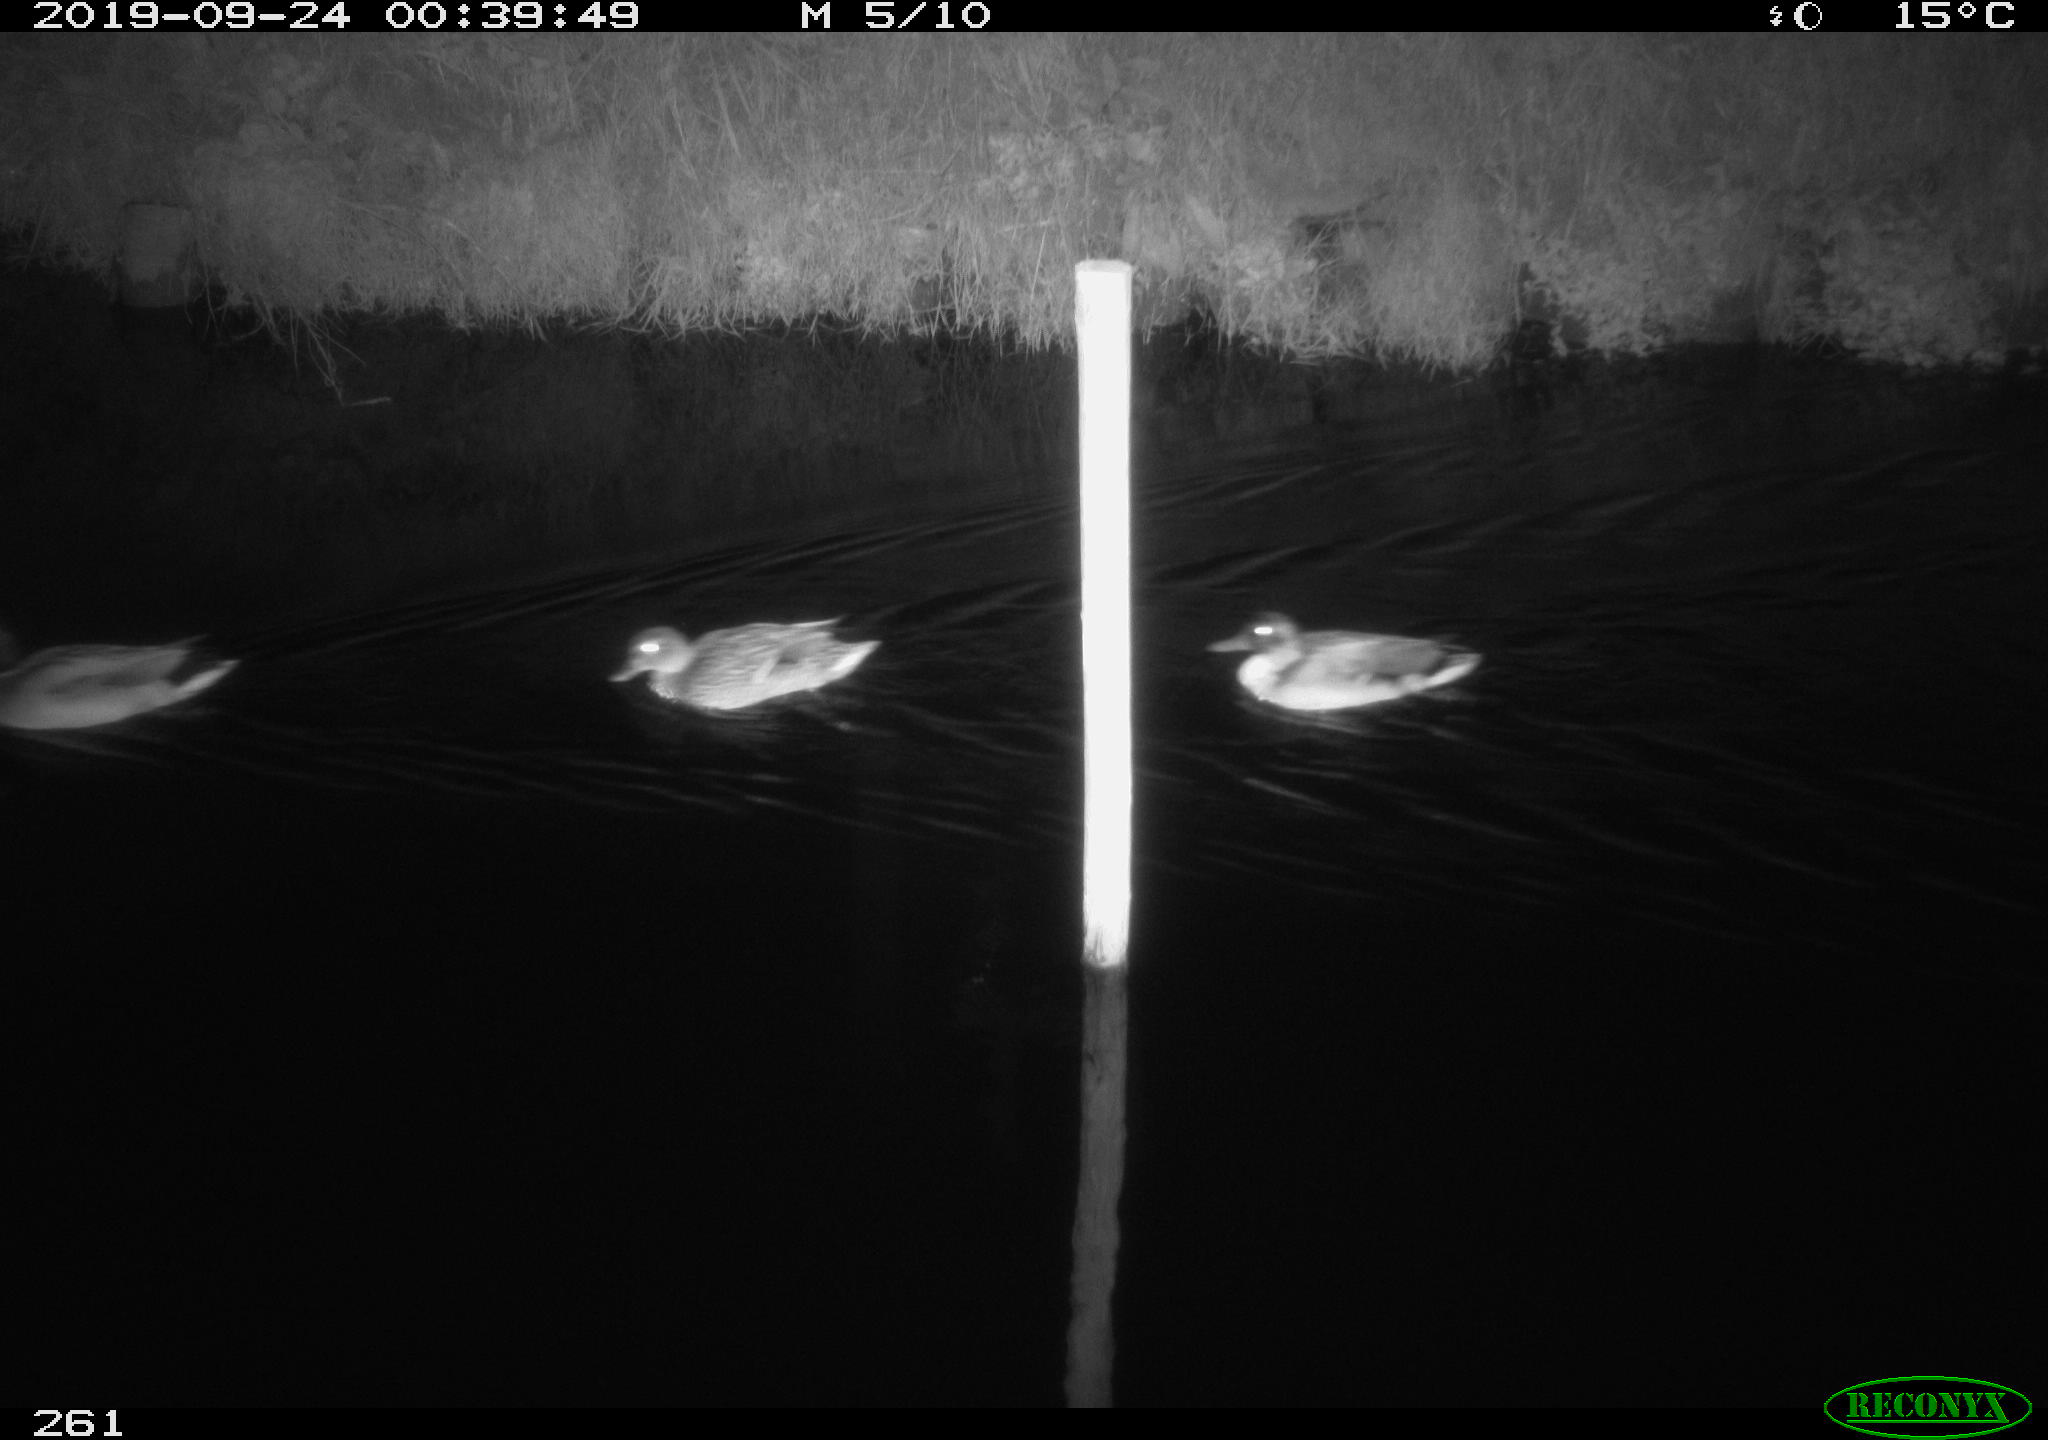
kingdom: Animalia
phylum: Chordata
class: Aves
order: Anseriformes
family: Anatidae
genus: Anas
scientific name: Anas platyrhynchos
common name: Mallard
